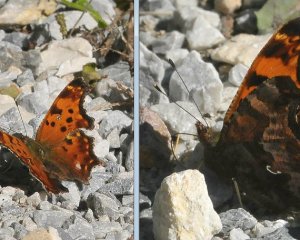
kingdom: Animalia
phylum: Arthropoda
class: Insecta
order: Lepidoptera
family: Nymphalidae
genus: Polygonia
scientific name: Polygonia comma
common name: Eastern Comma
